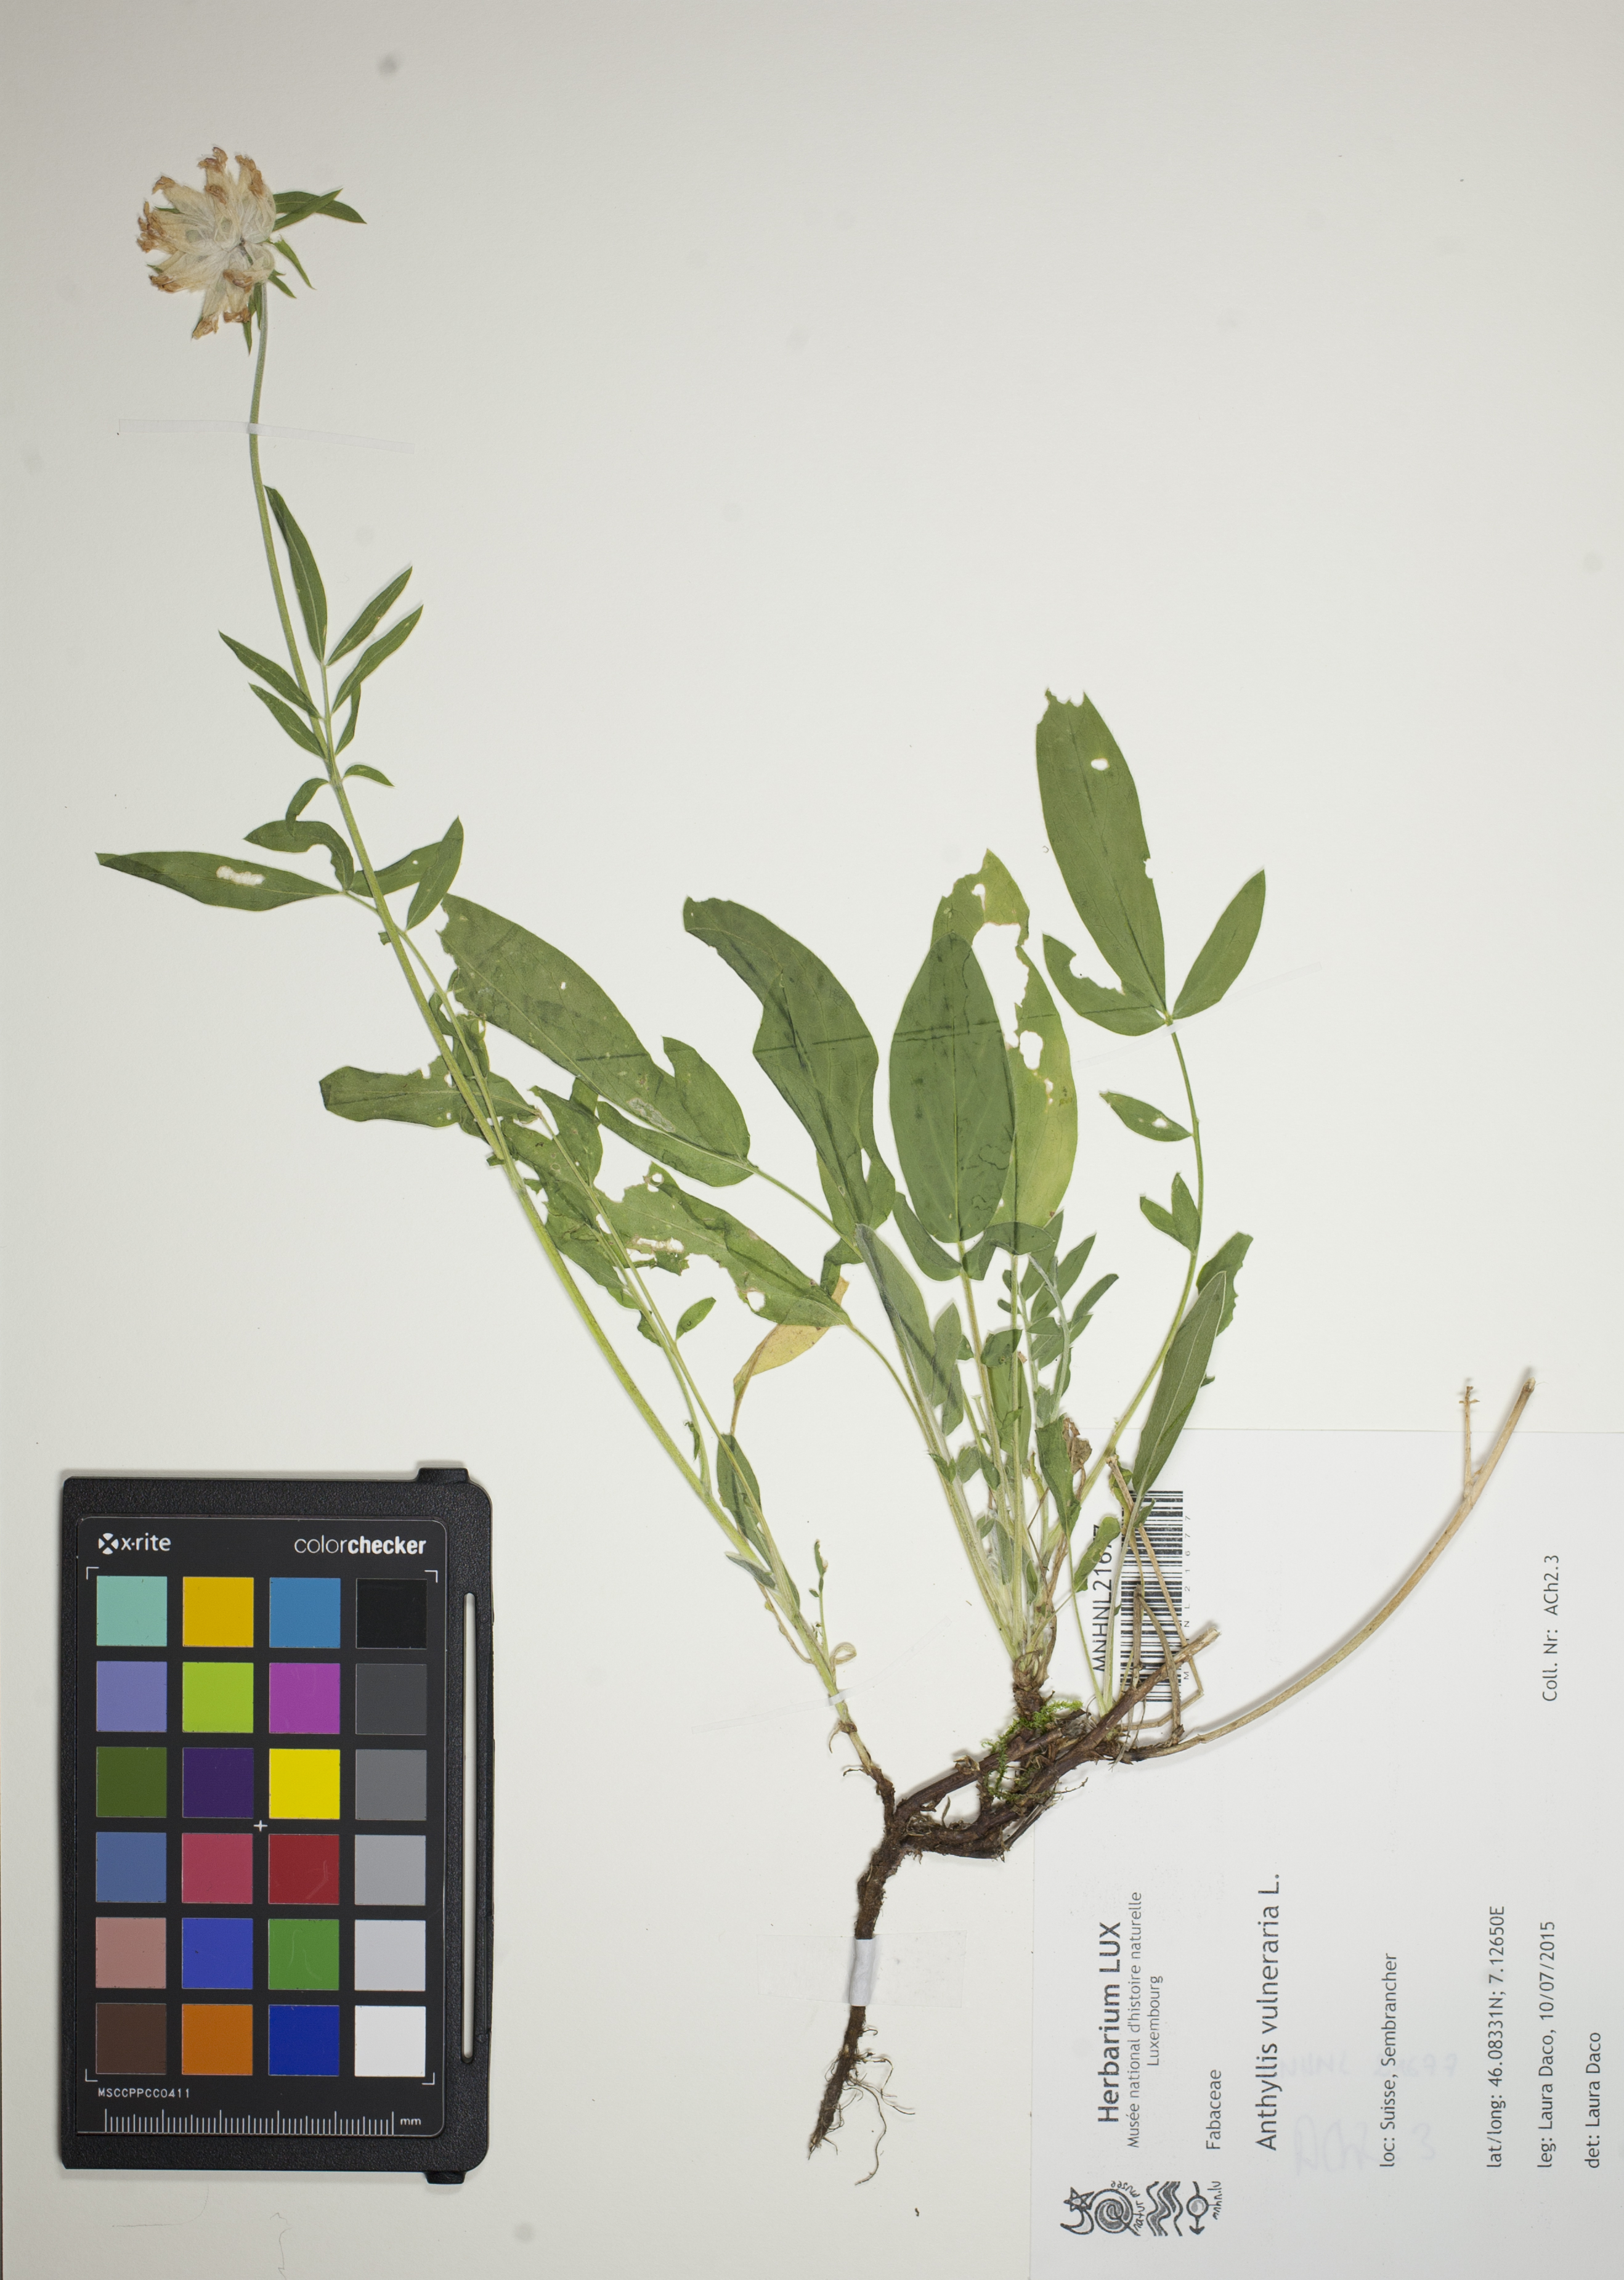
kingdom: Plantae
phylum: Tracheophyta
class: Magnoliopsida
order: Fabales
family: Fabaceae
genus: Anthyllis
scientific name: Anthyllis vulneraria
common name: Kidney vetch
